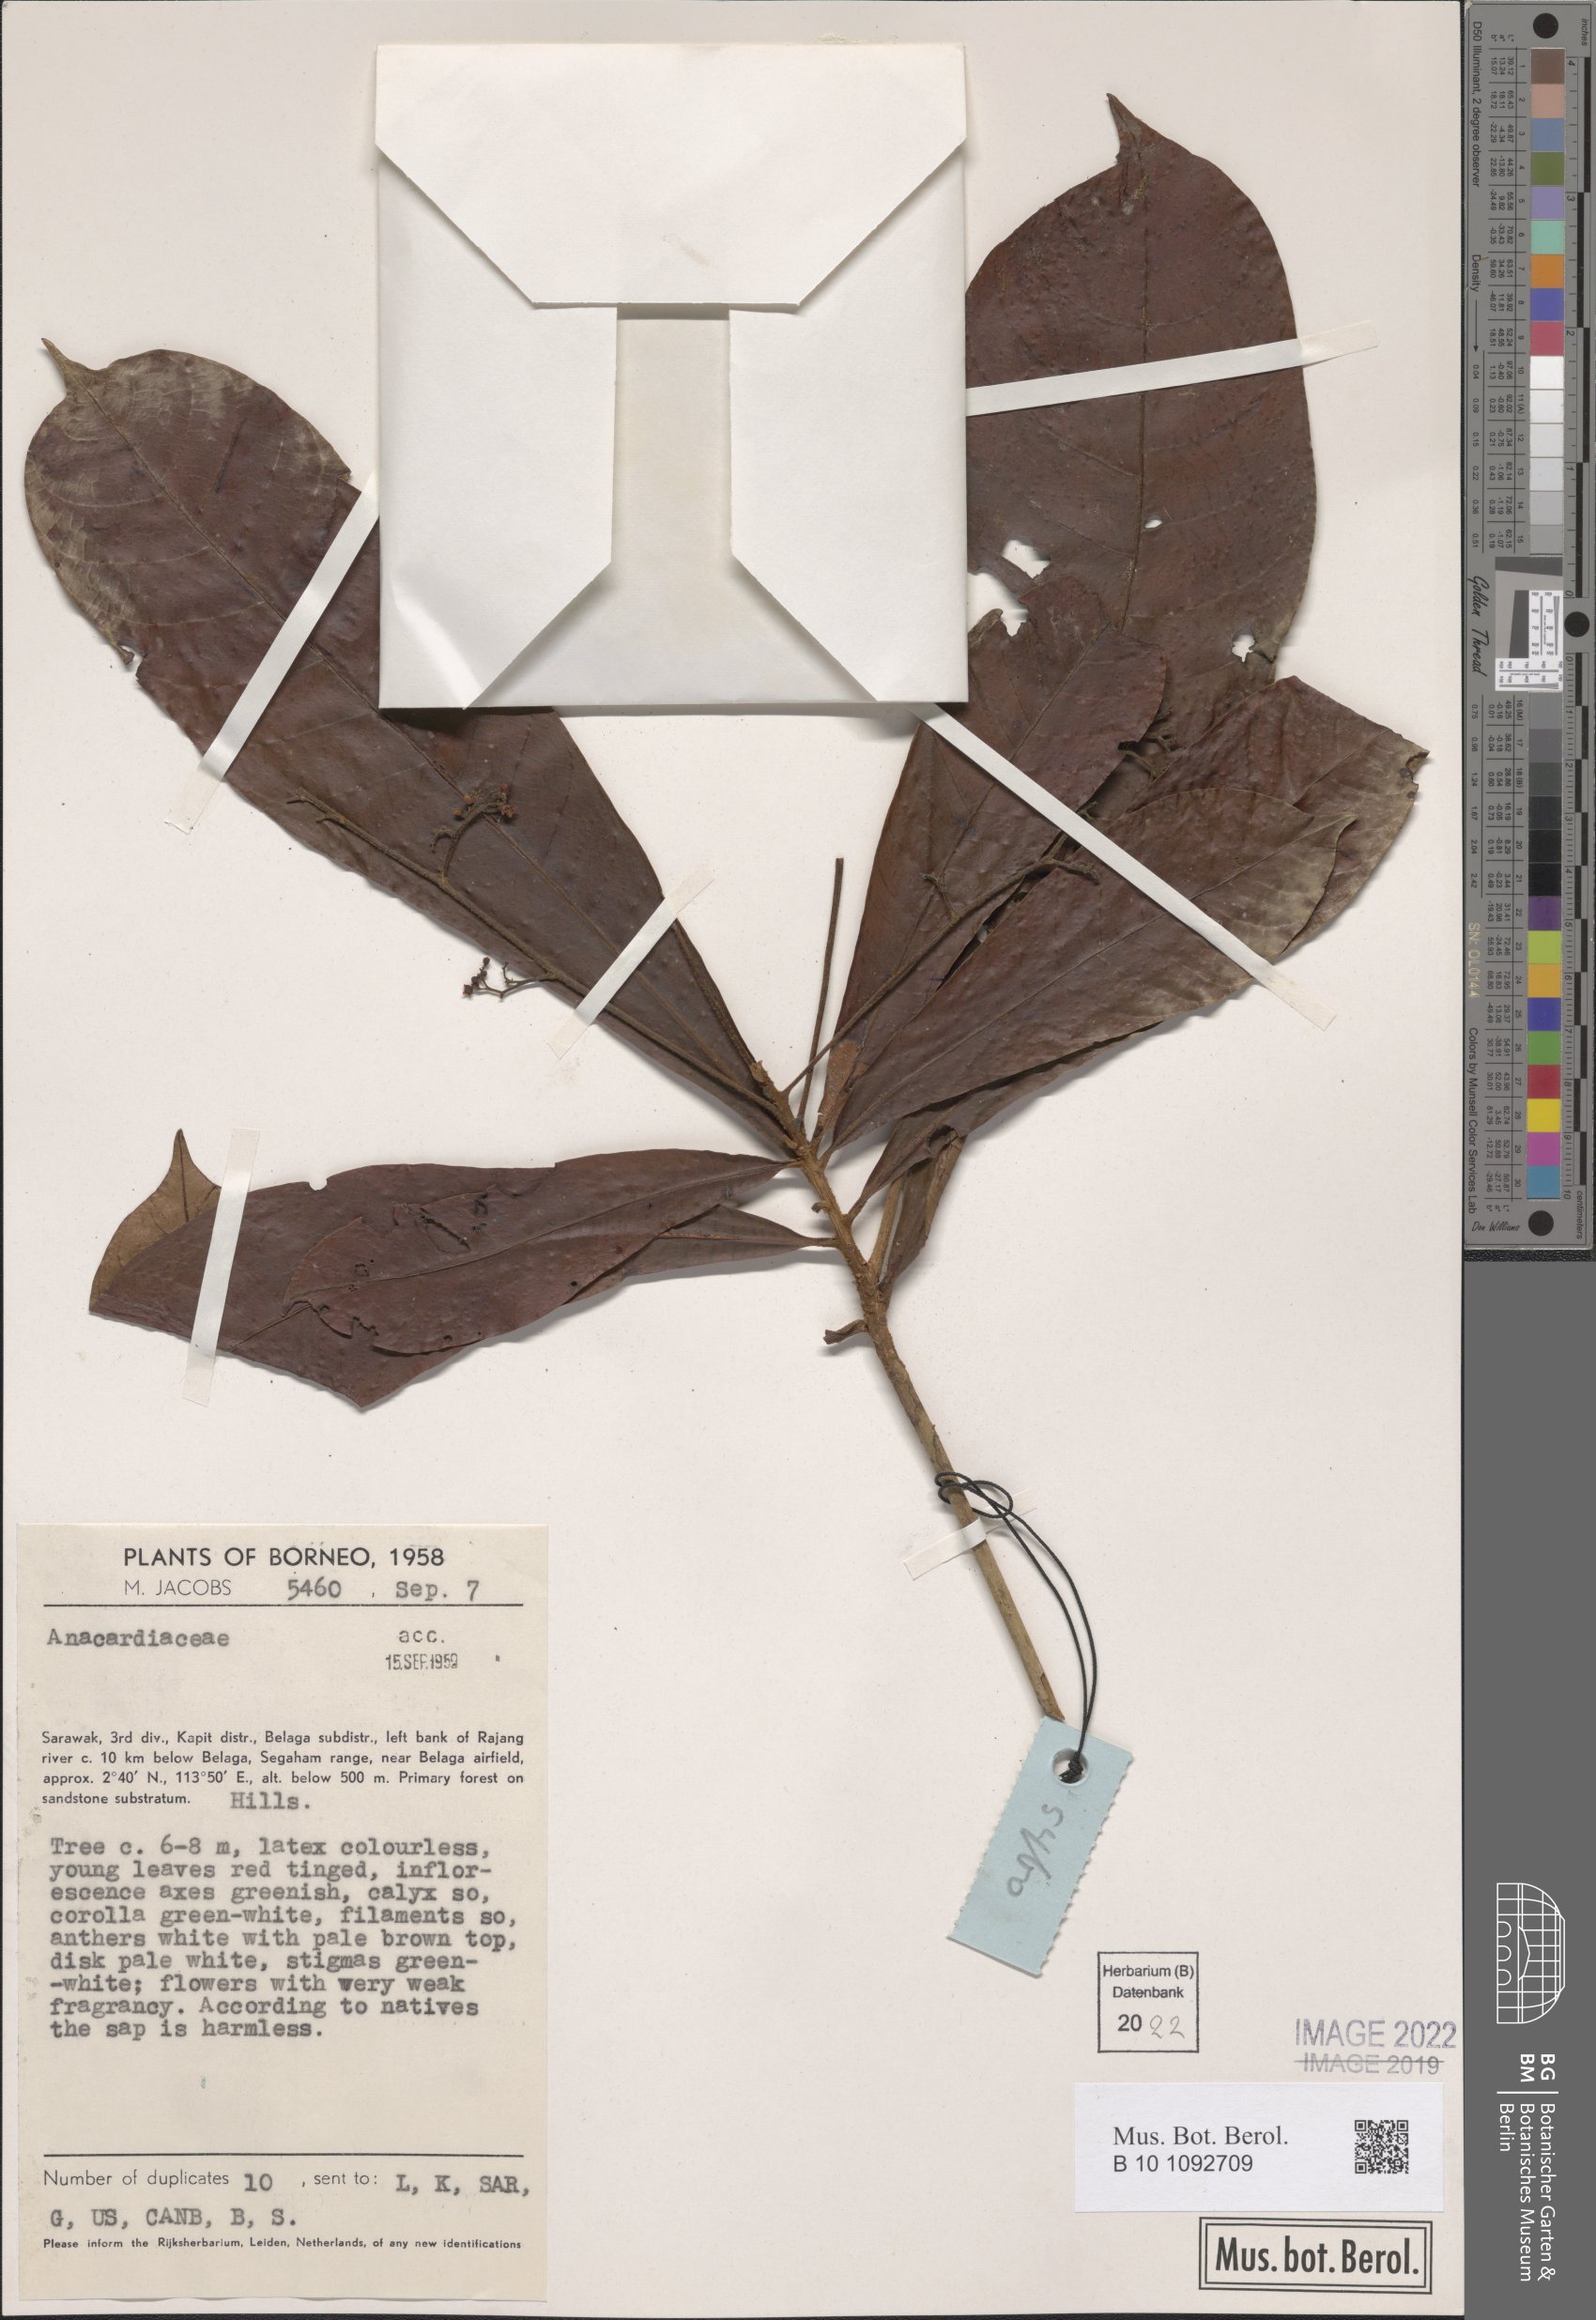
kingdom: Plantae
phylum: Tracheophyta
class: Magnoliopsida
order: Sapindales
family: Anacardiaceae
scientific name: Anacardiaceae
